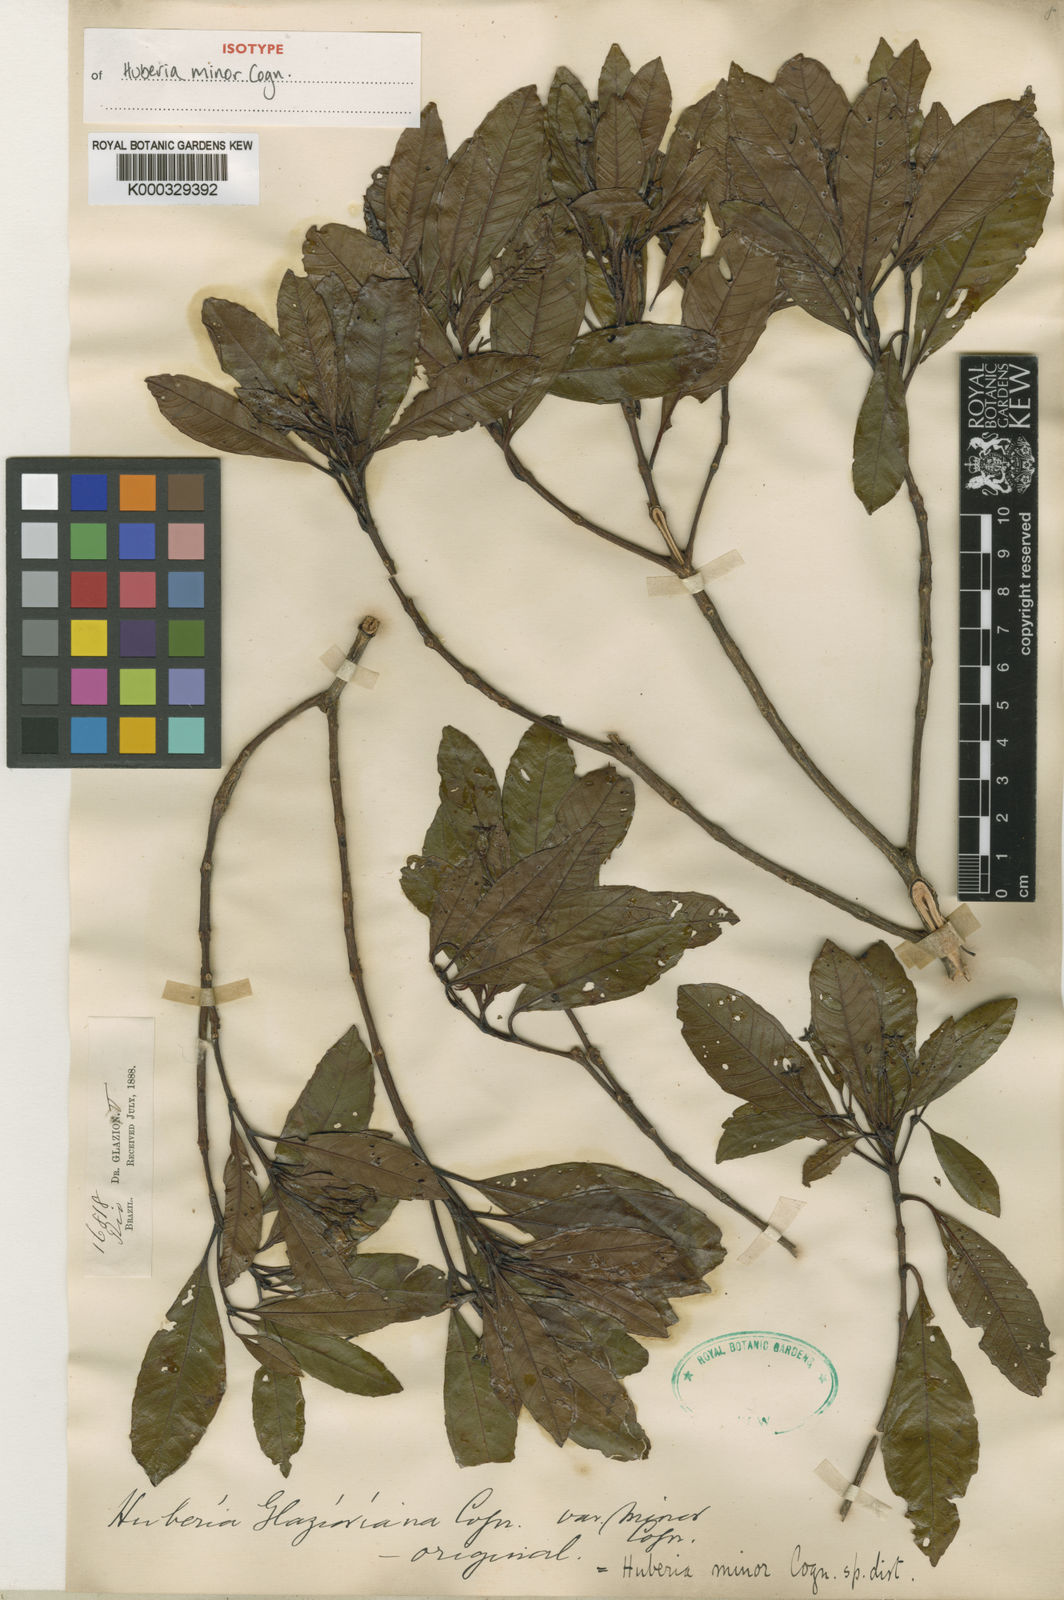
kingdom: Plantae
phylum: Tracheophyta
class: Magnoliopsida
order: Myrtales
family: Melastomataceae
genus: Huberia
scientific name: Huberia minor
